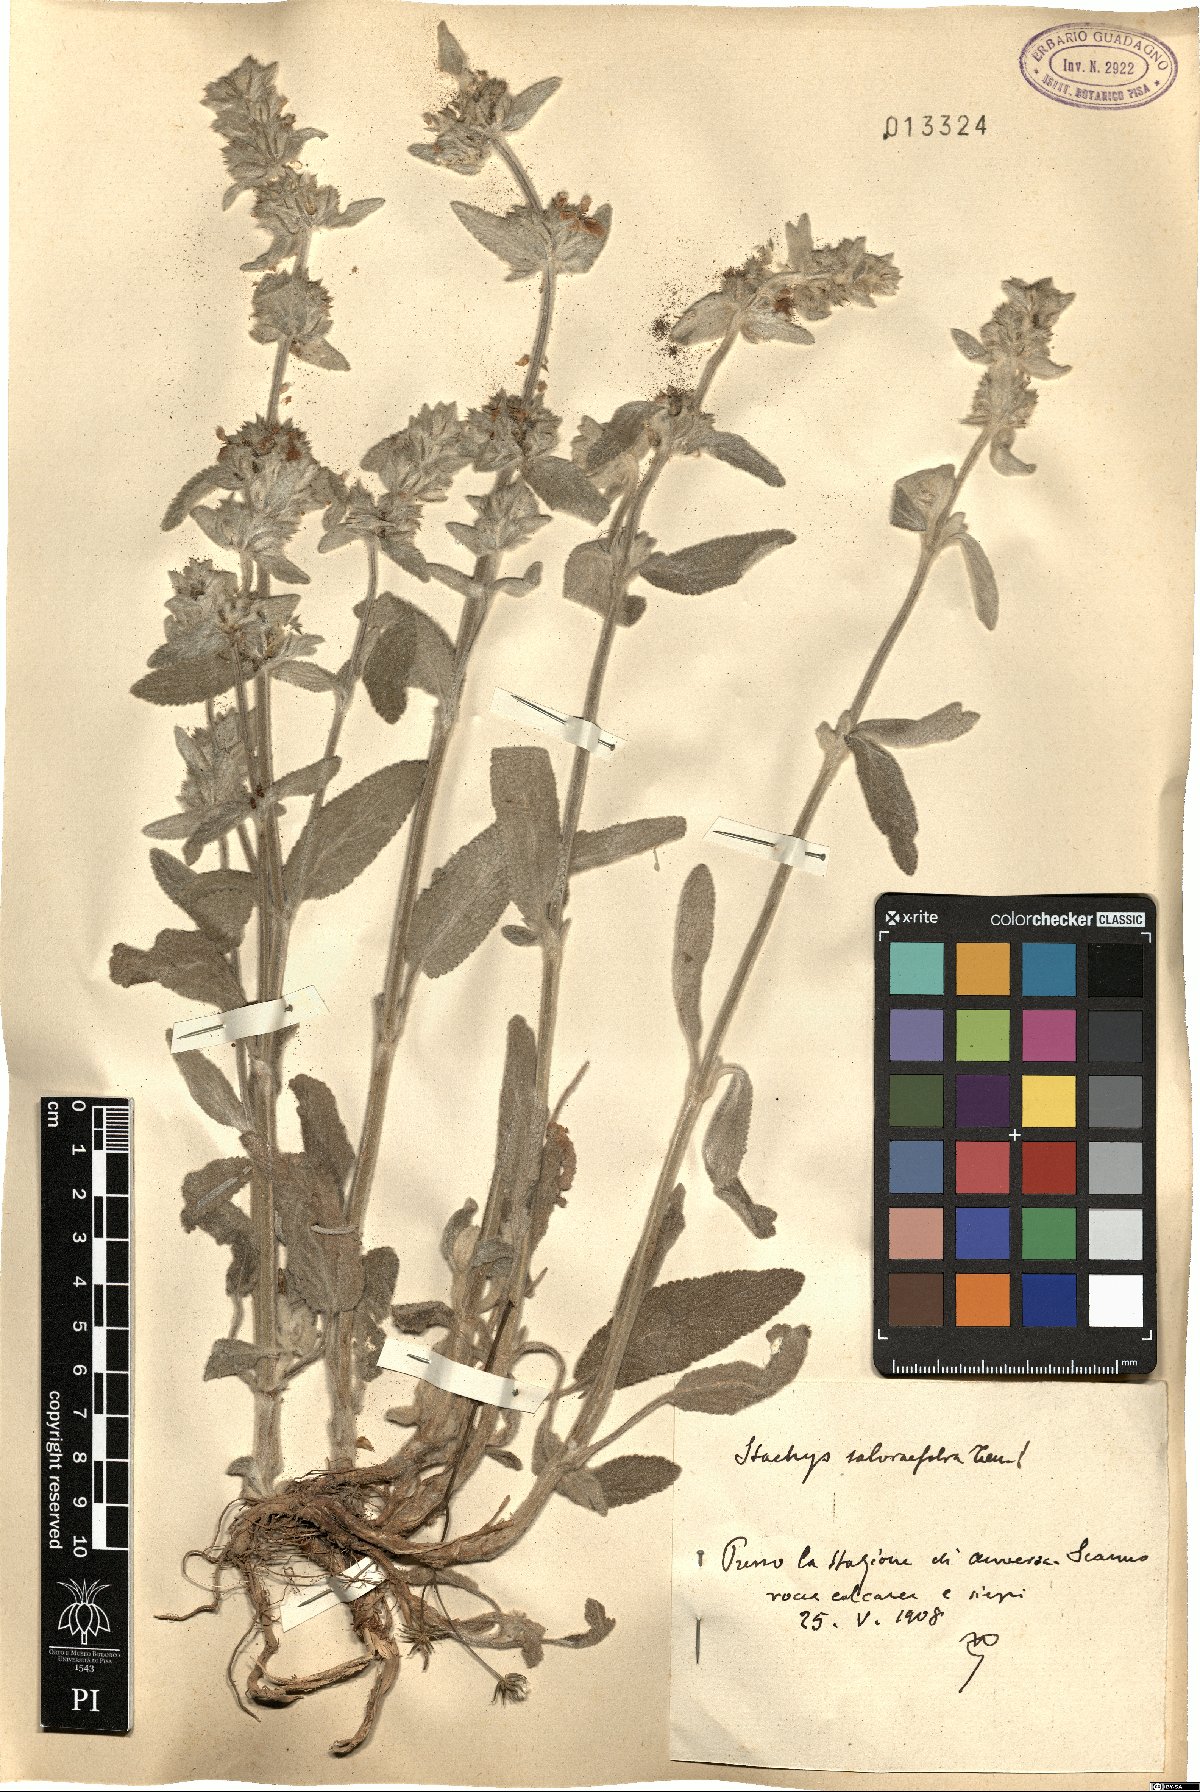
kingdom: Plantae
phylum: Tracheophyta
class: Magnoliopsida
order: Lamiales
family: Lamiaceae
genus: Stachys
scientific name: Stachys cretica
